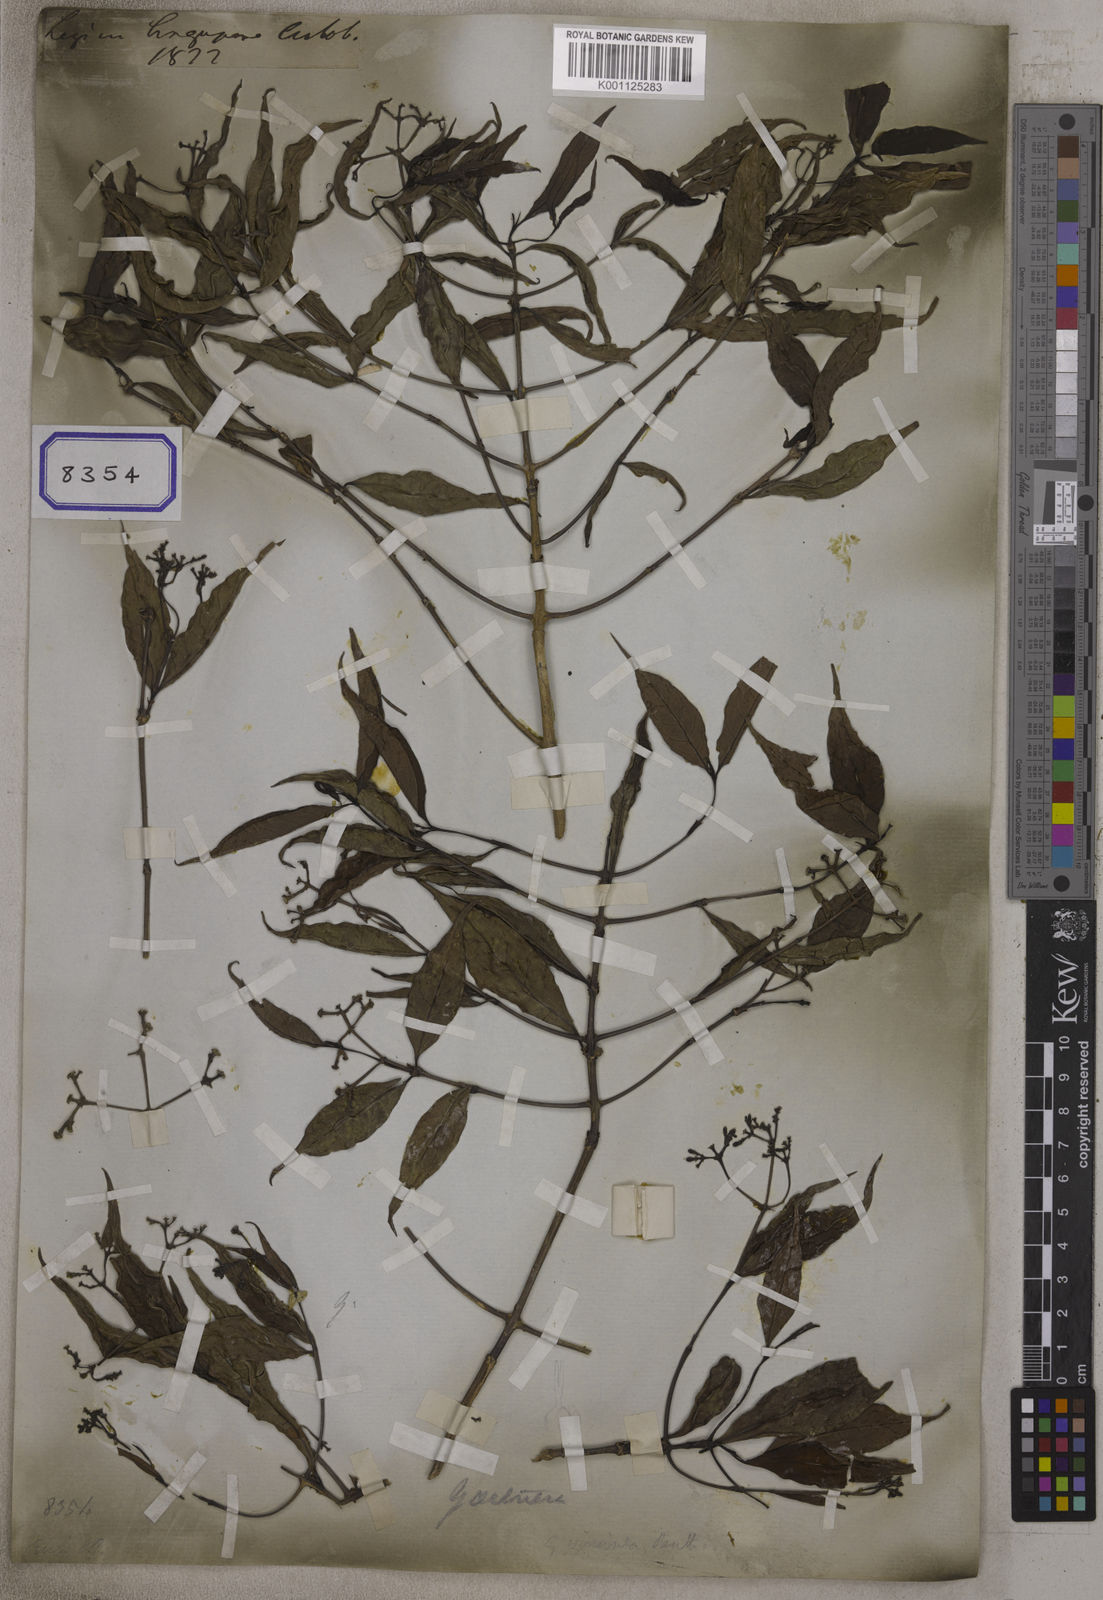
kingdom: Plantae
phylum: Tracheophyta
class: Magnoliopsida
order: Gentianales
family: Rubiaceae
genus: Gaertnera
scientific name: Gaertnera viminea
